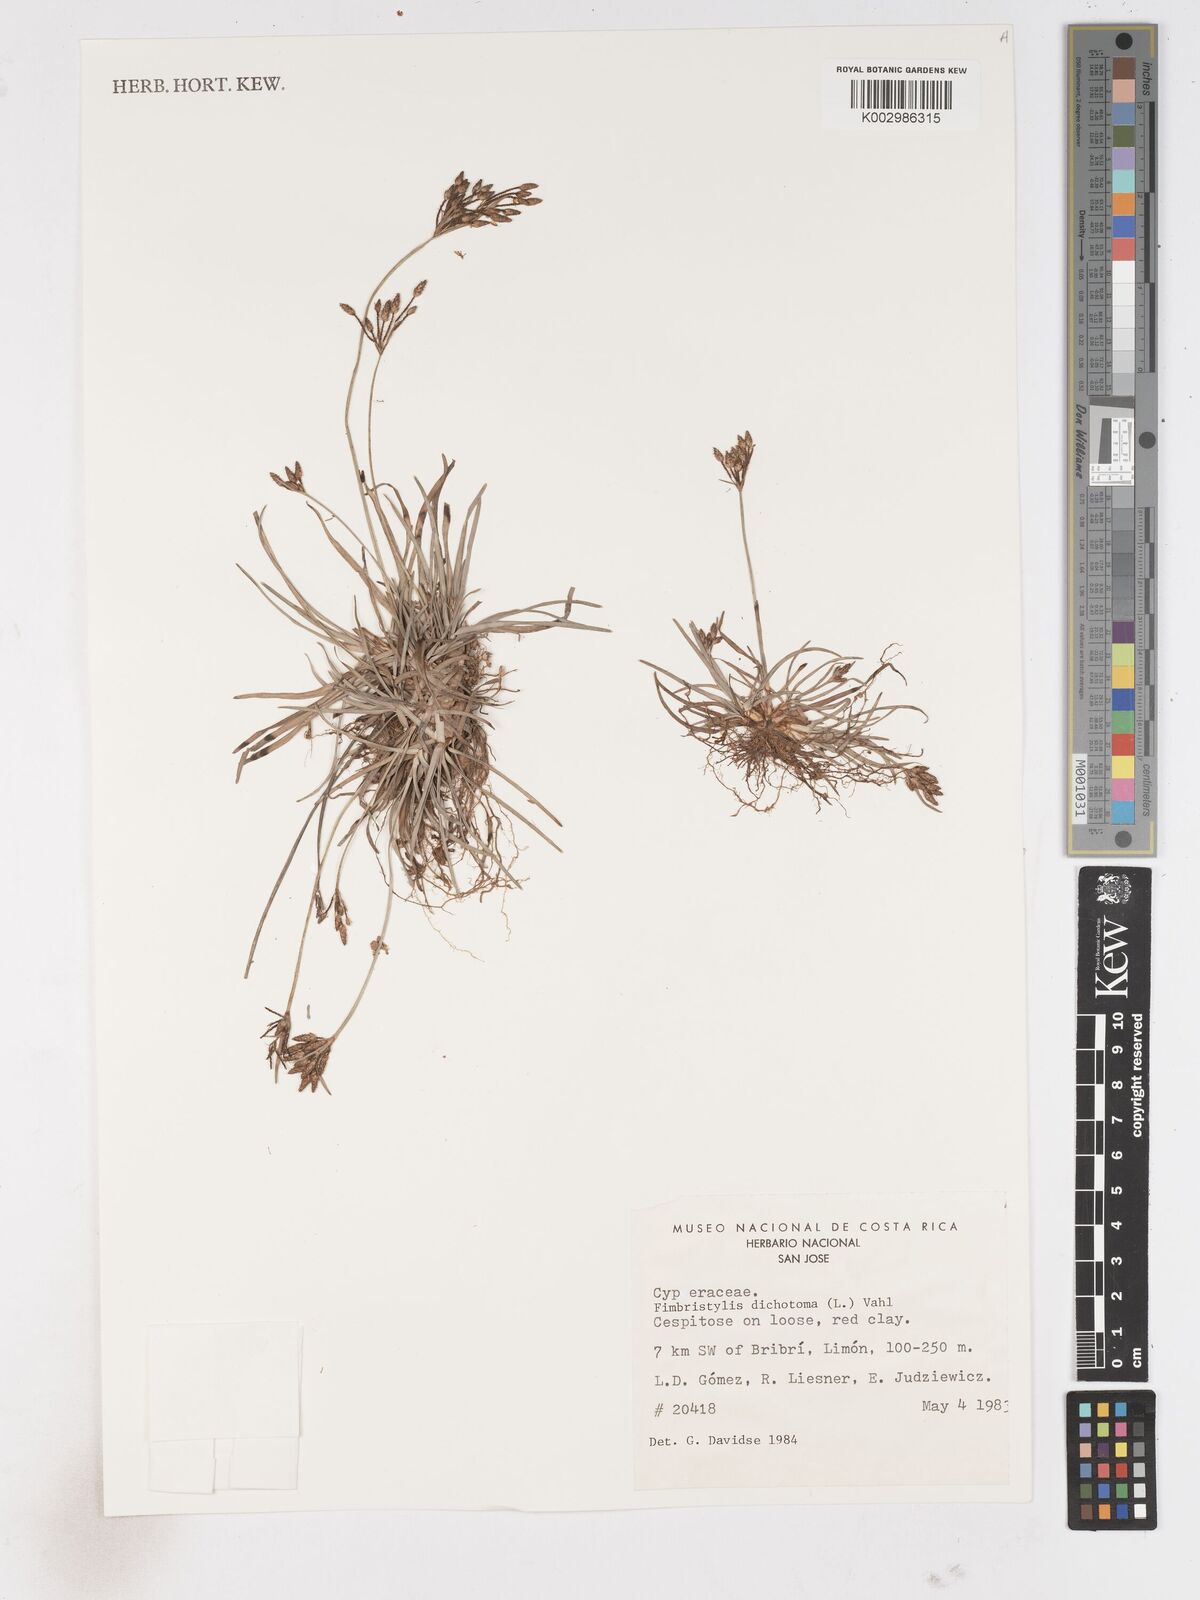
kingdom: Plantae
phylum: Tracheophyta
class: Liliopsida
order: Poales
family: Cyperaceae
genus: Fimbristylis
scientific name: Fimbristylis dichotoma
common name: Forked fimbry
